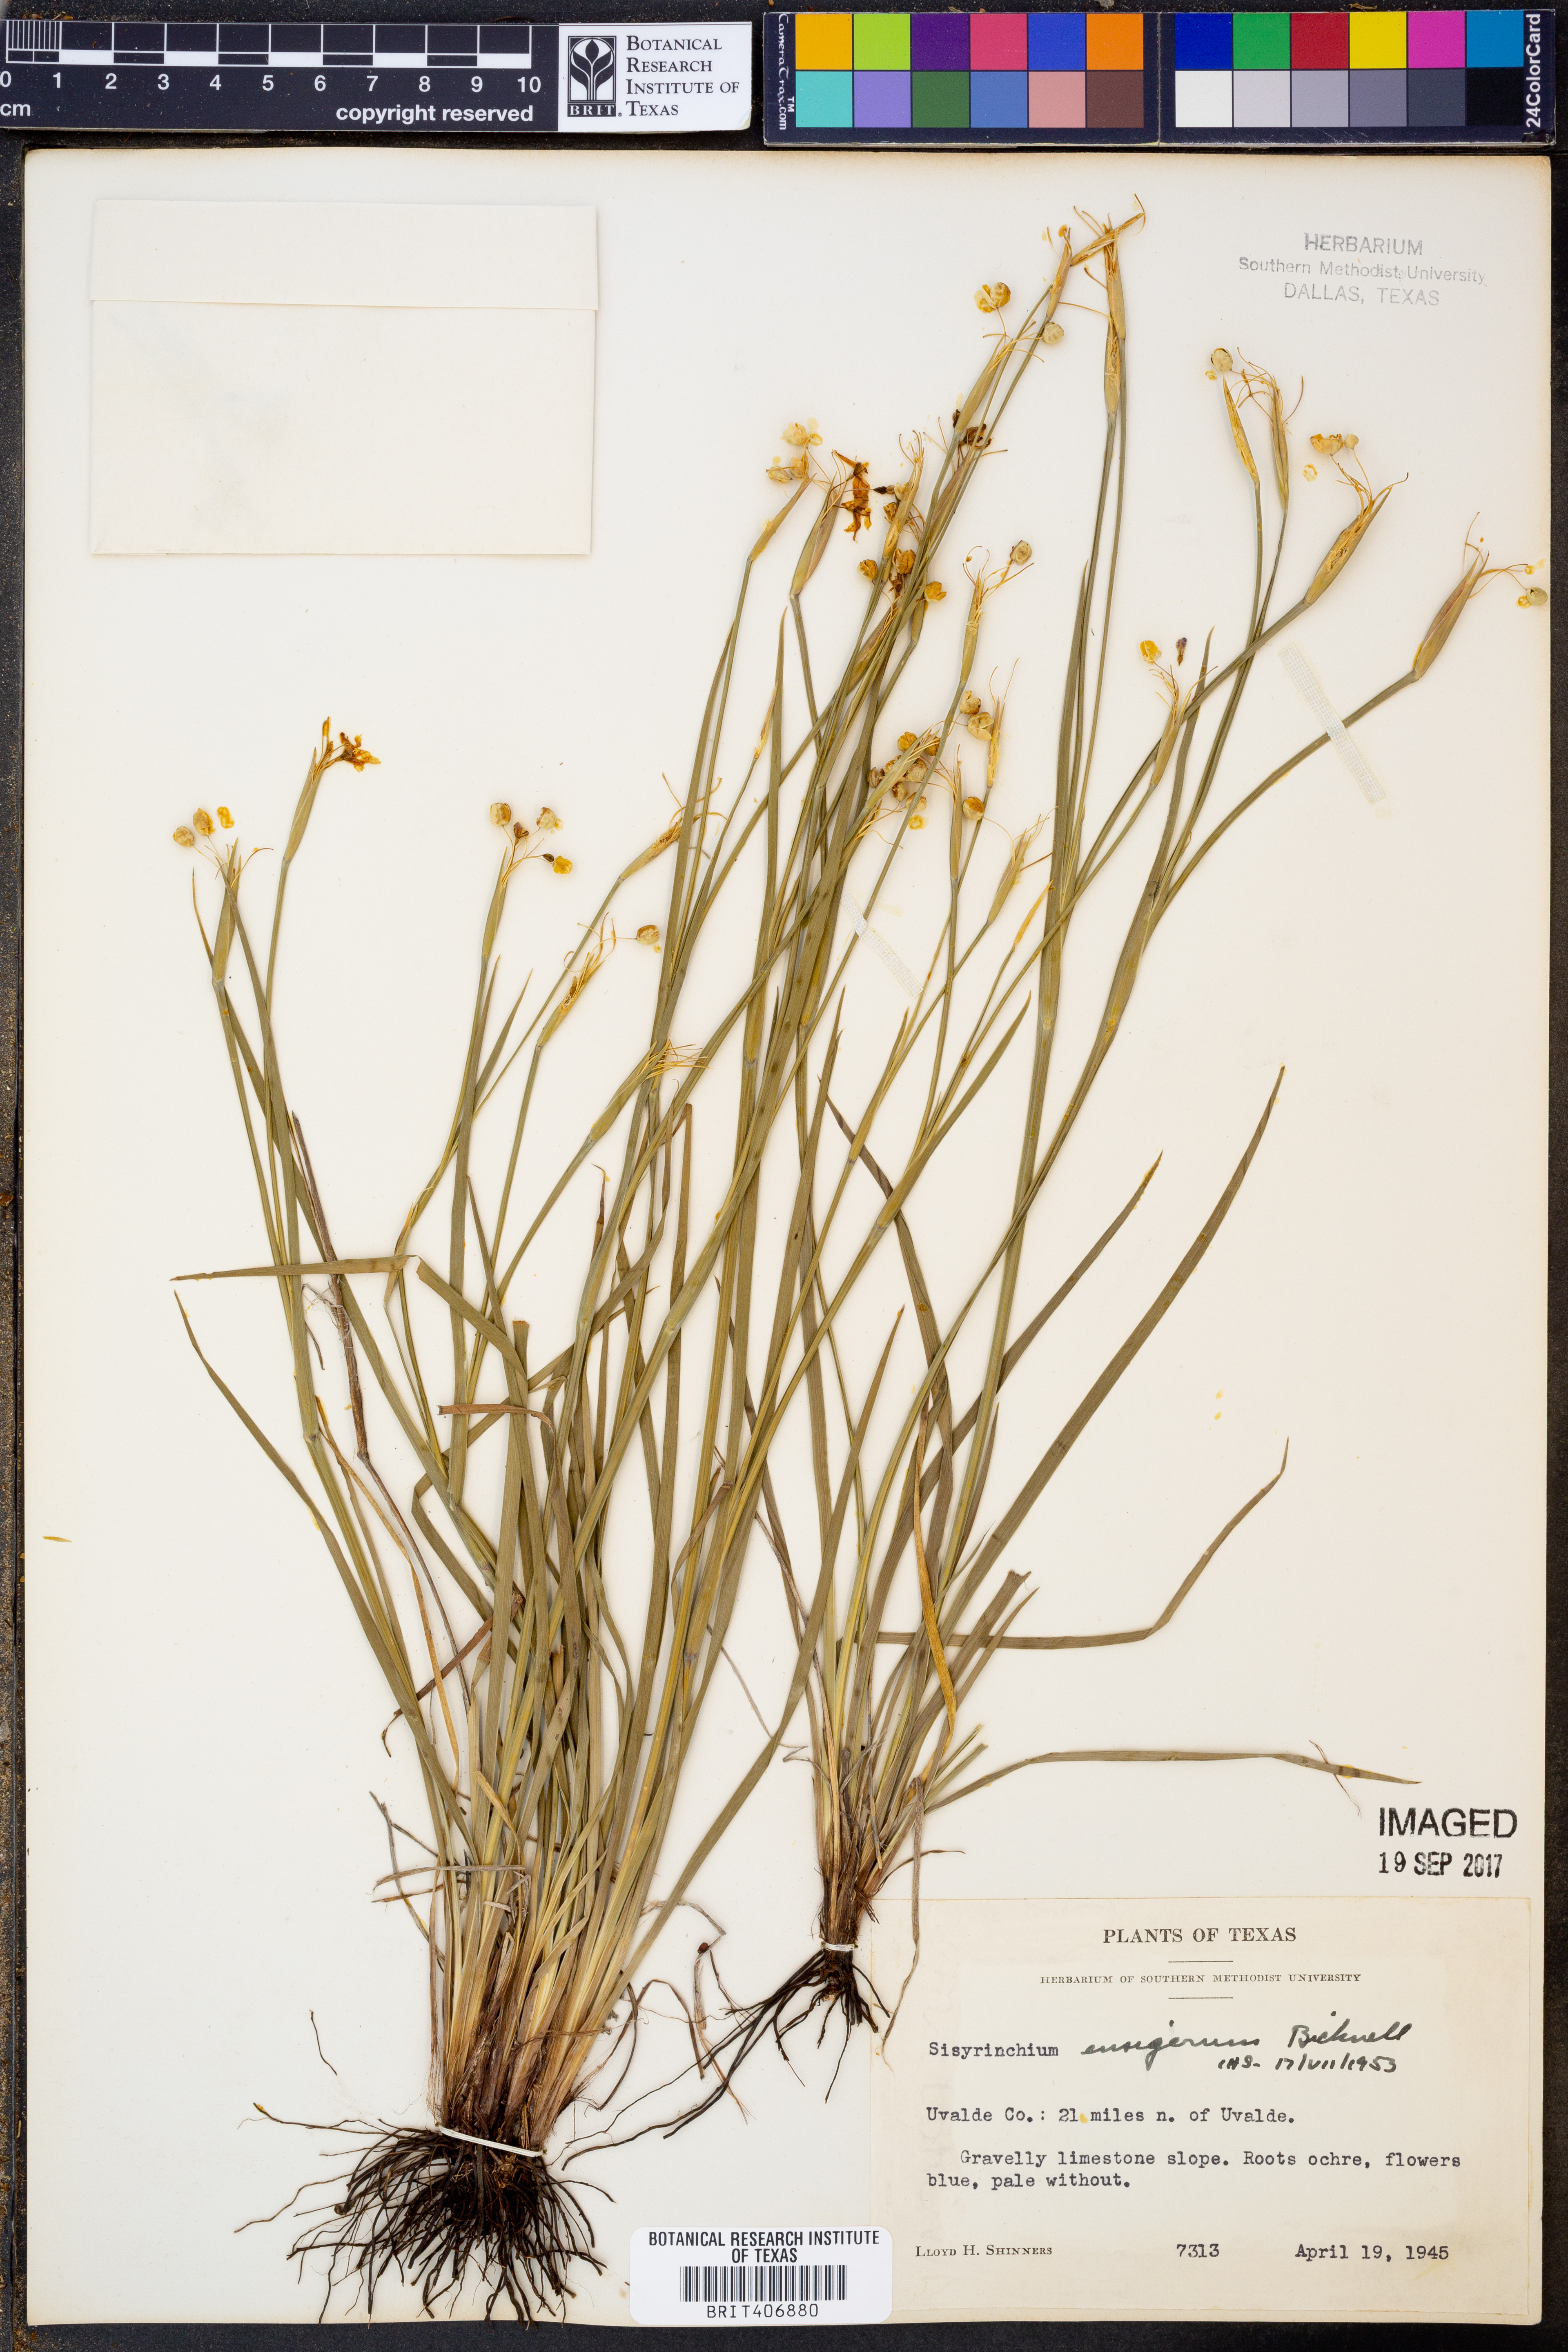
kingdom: Plantae
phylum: Tracheophyta
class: Liliopsida
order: Asparagales
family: Iridaceae
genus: Sisyrinchium
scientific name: Sisyrinchium ensigerum
